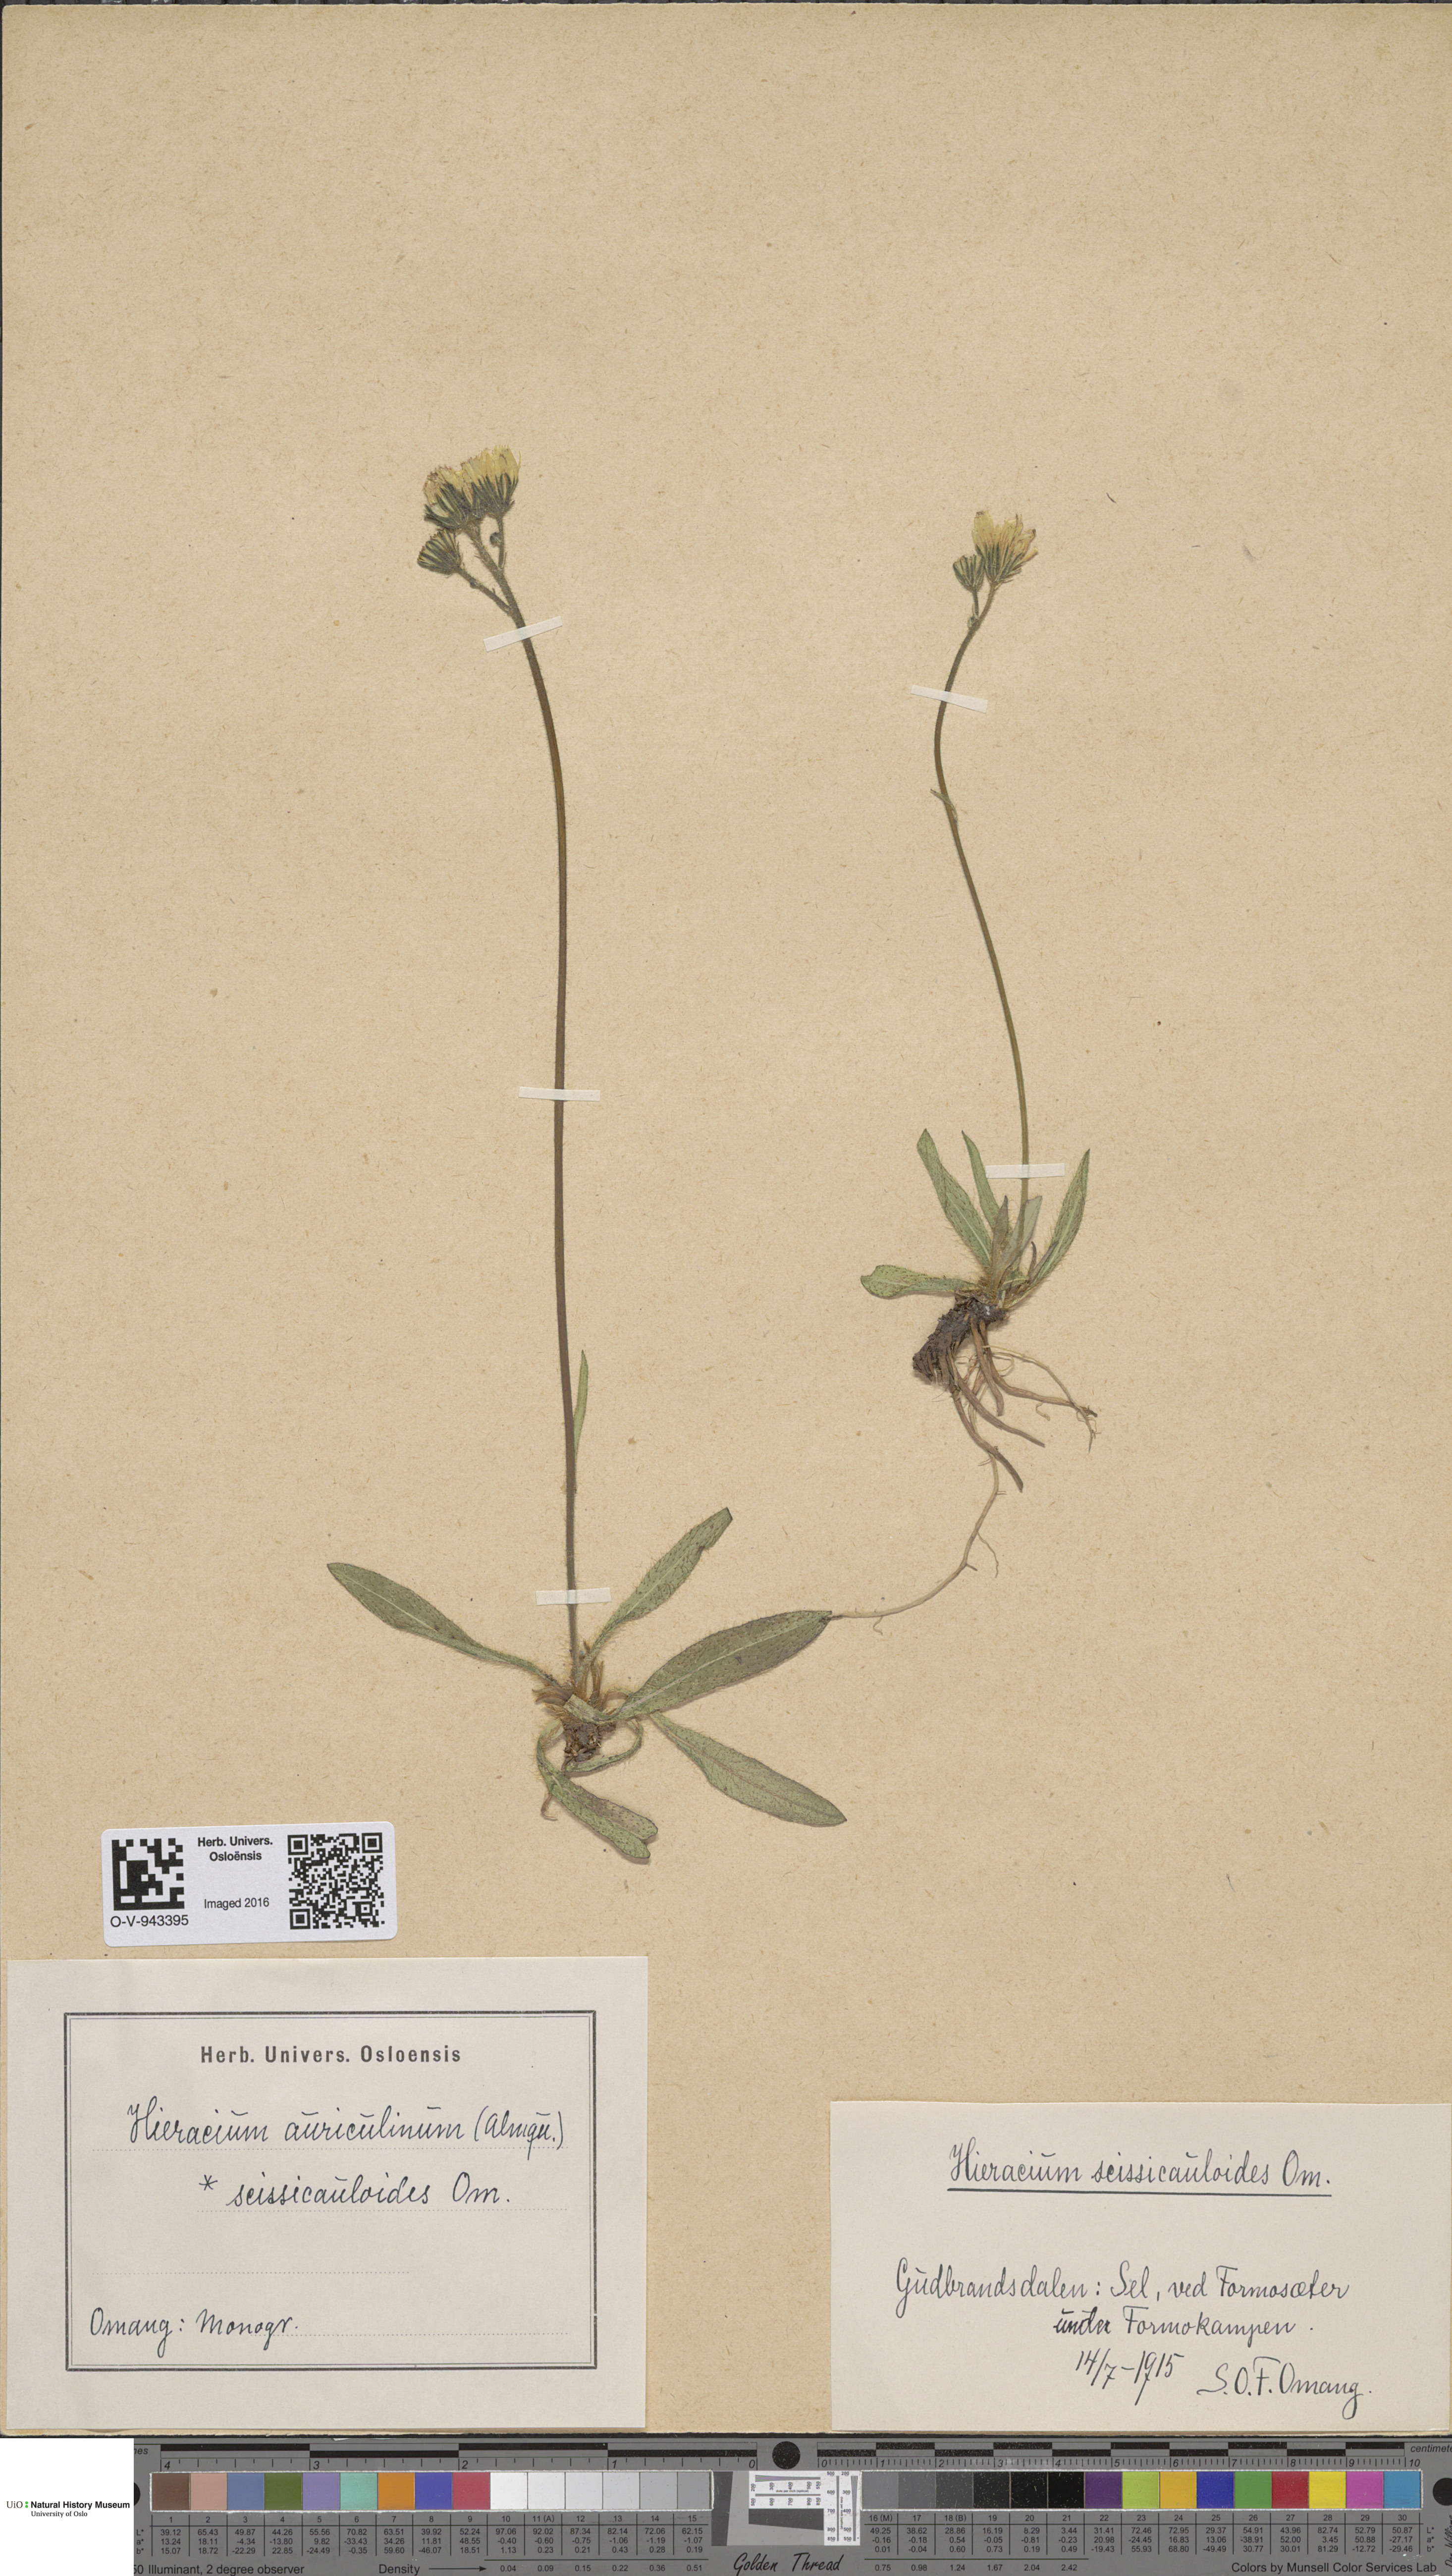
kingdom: Plantae
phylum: Tracheophyta
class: Magnoliopsida
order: Asterales
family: Asteraceae
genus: Pilosella
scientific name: Pilosella dubia
